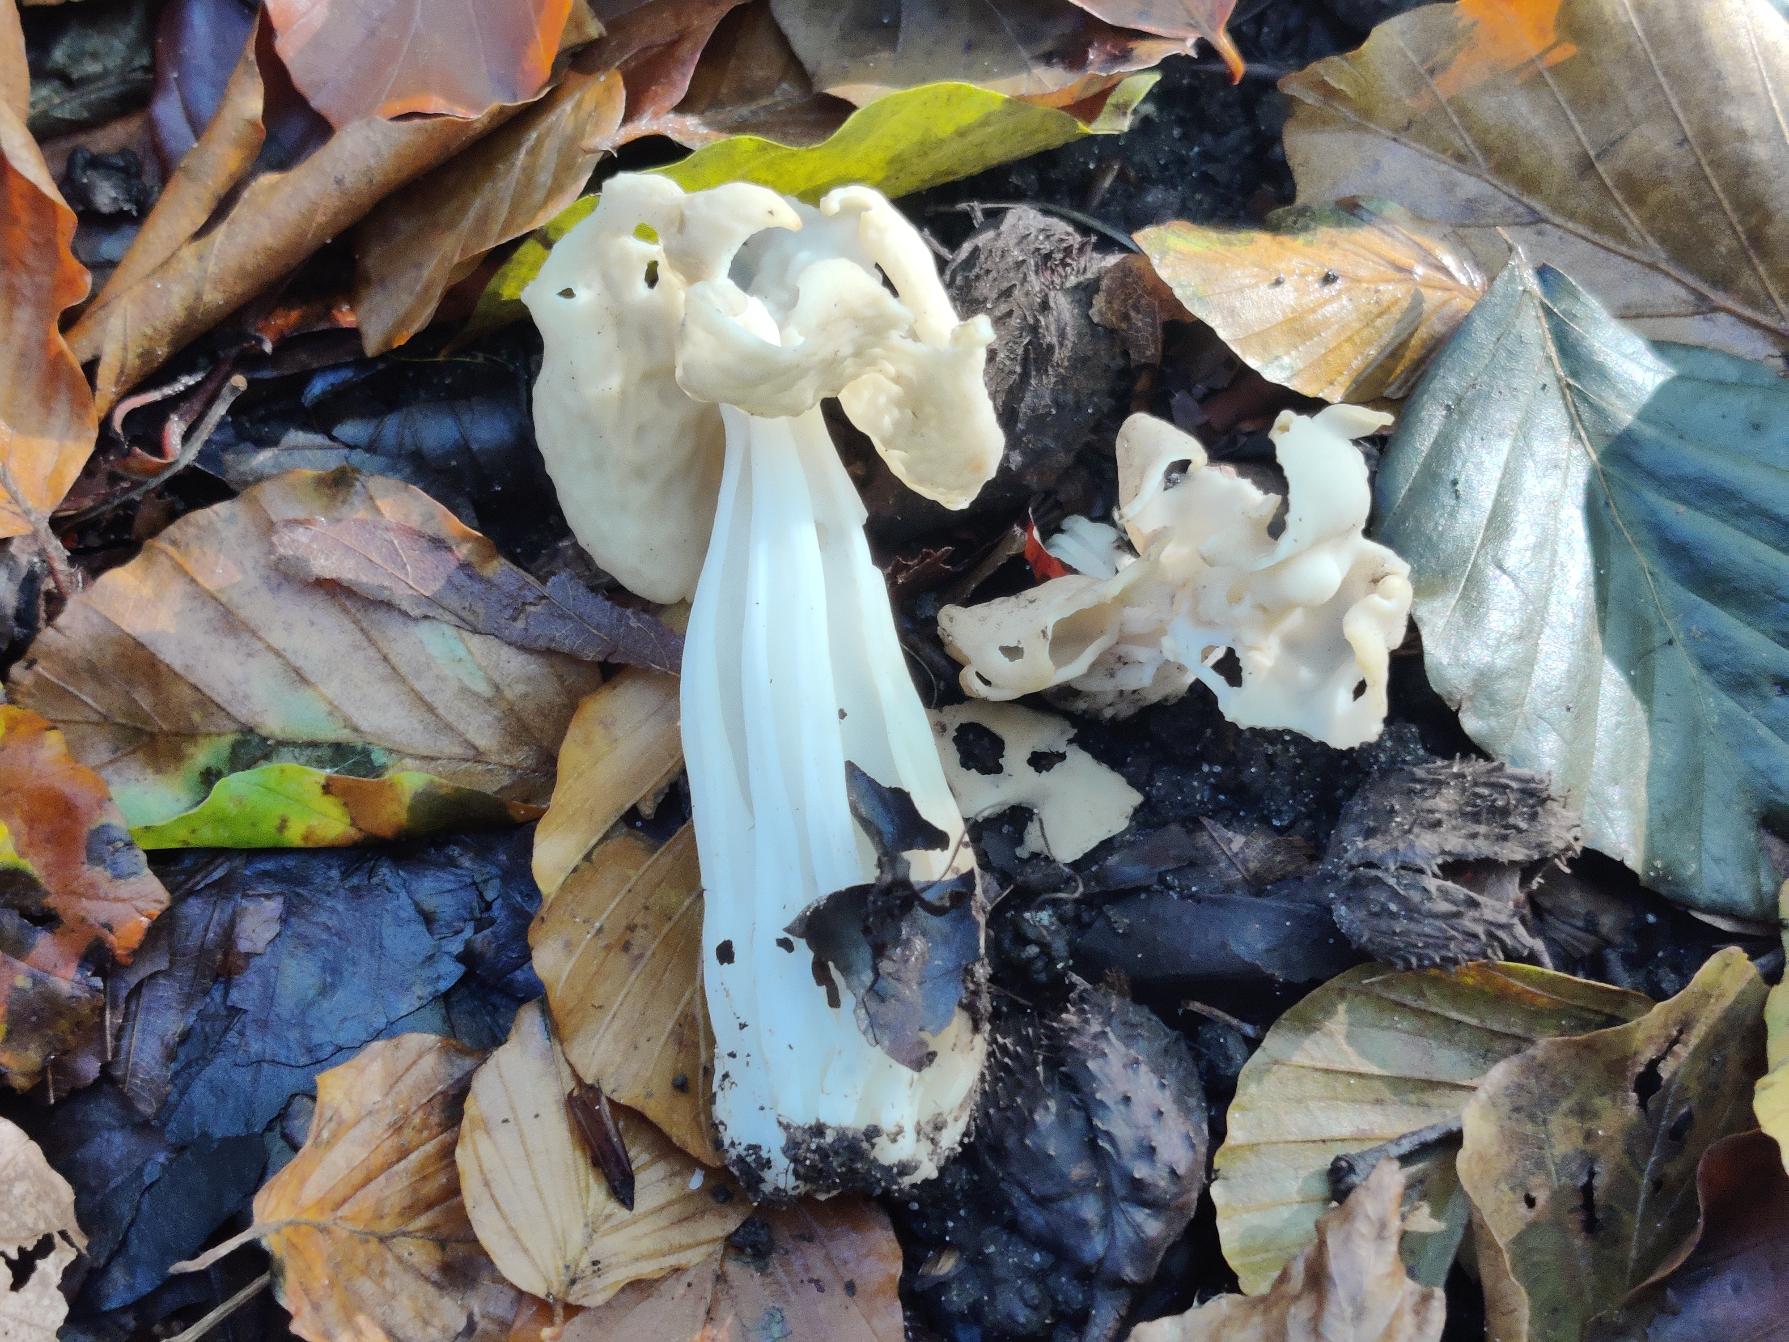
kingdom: Fungi
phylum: Ascomycota
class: Pezizomycetes
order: Pezizales
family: Helvellaceae
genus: Helvella
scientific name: Helvella crispa
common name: Kruset foldhat
